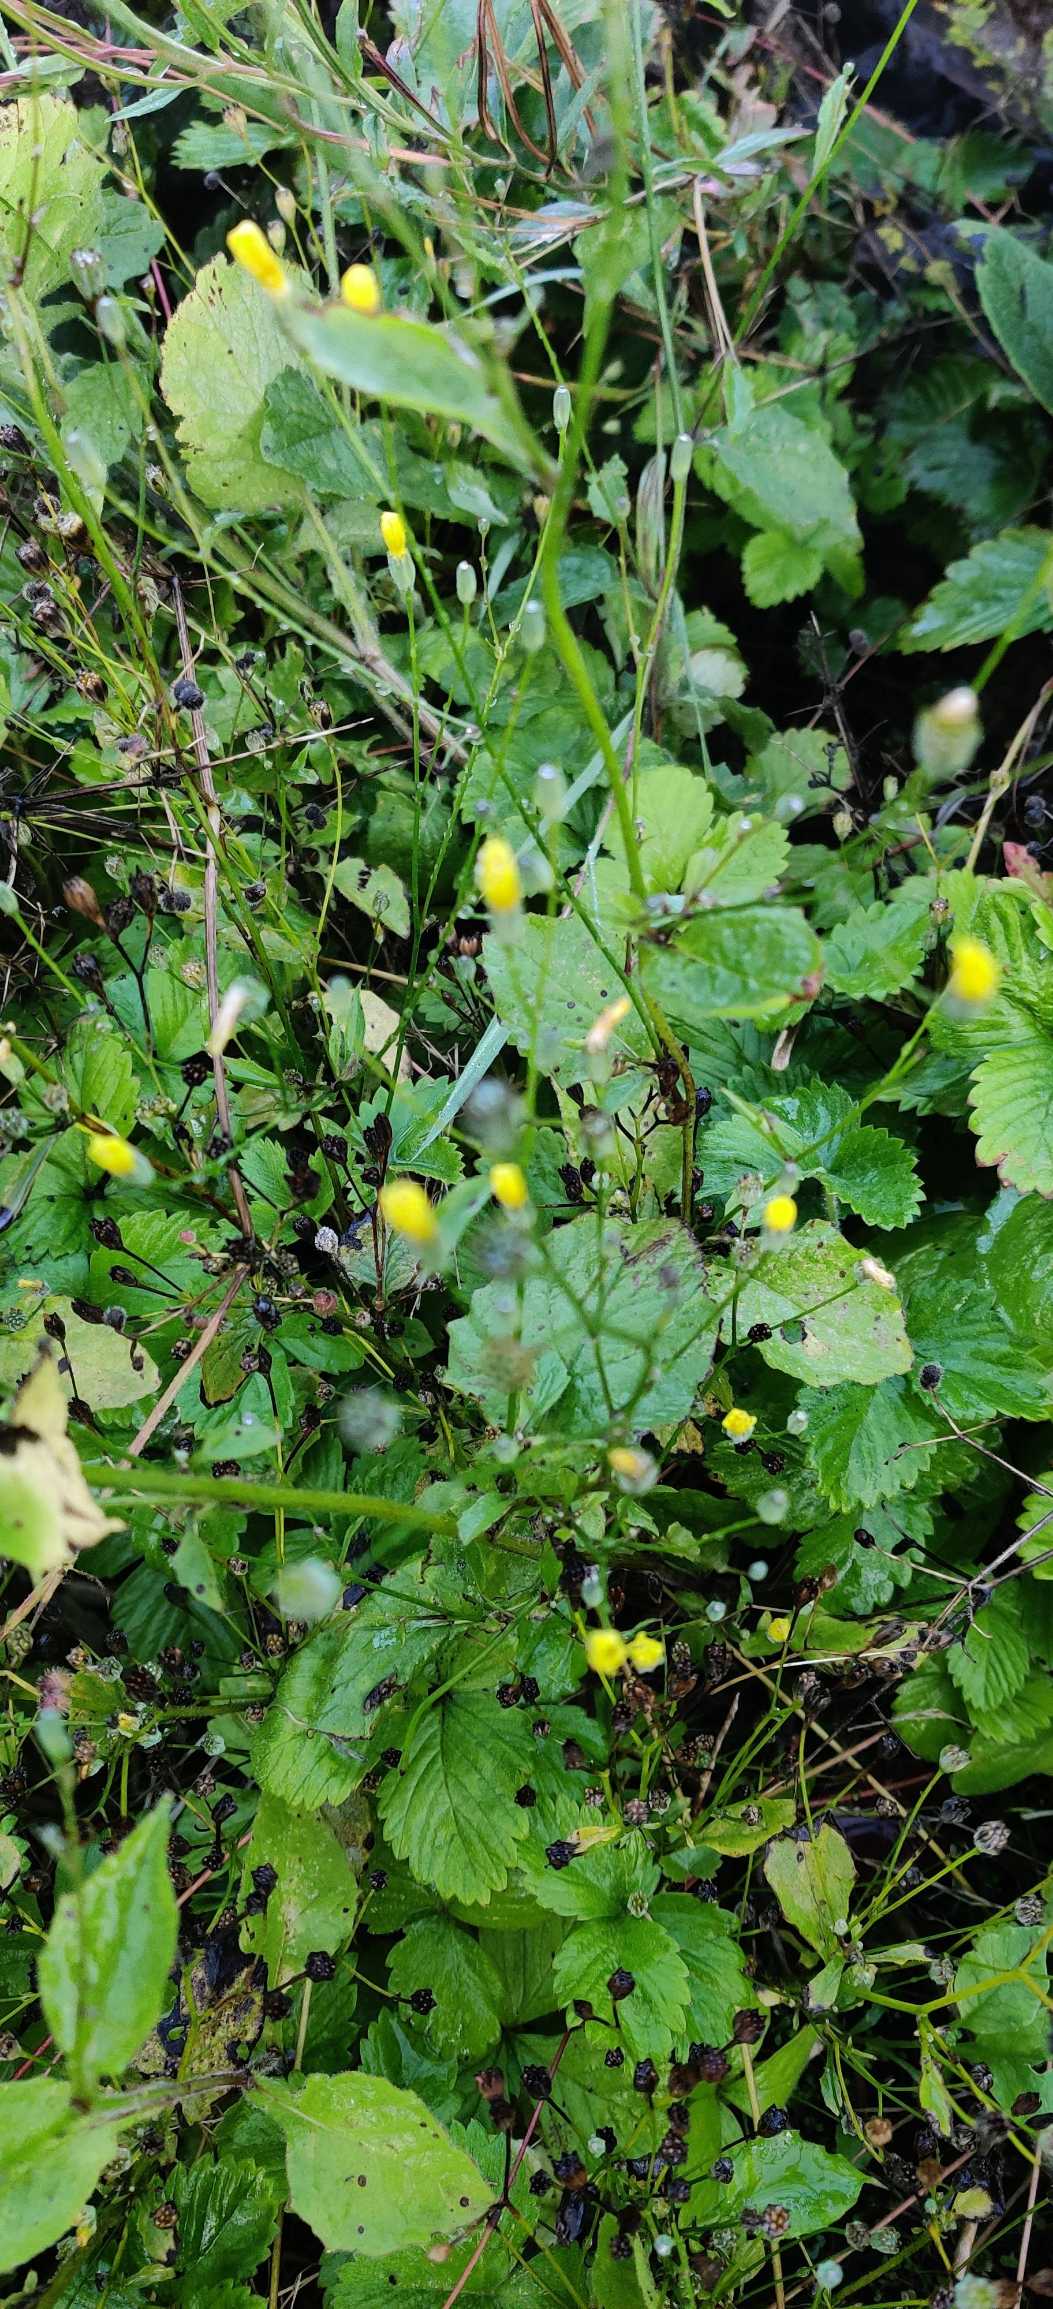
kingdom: Plantae
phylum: Tracheophyta
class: Magnoliopsida
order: Asterales
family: Asteraceae
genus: Lapsana
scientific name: Lapsana communis
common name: Haremad
